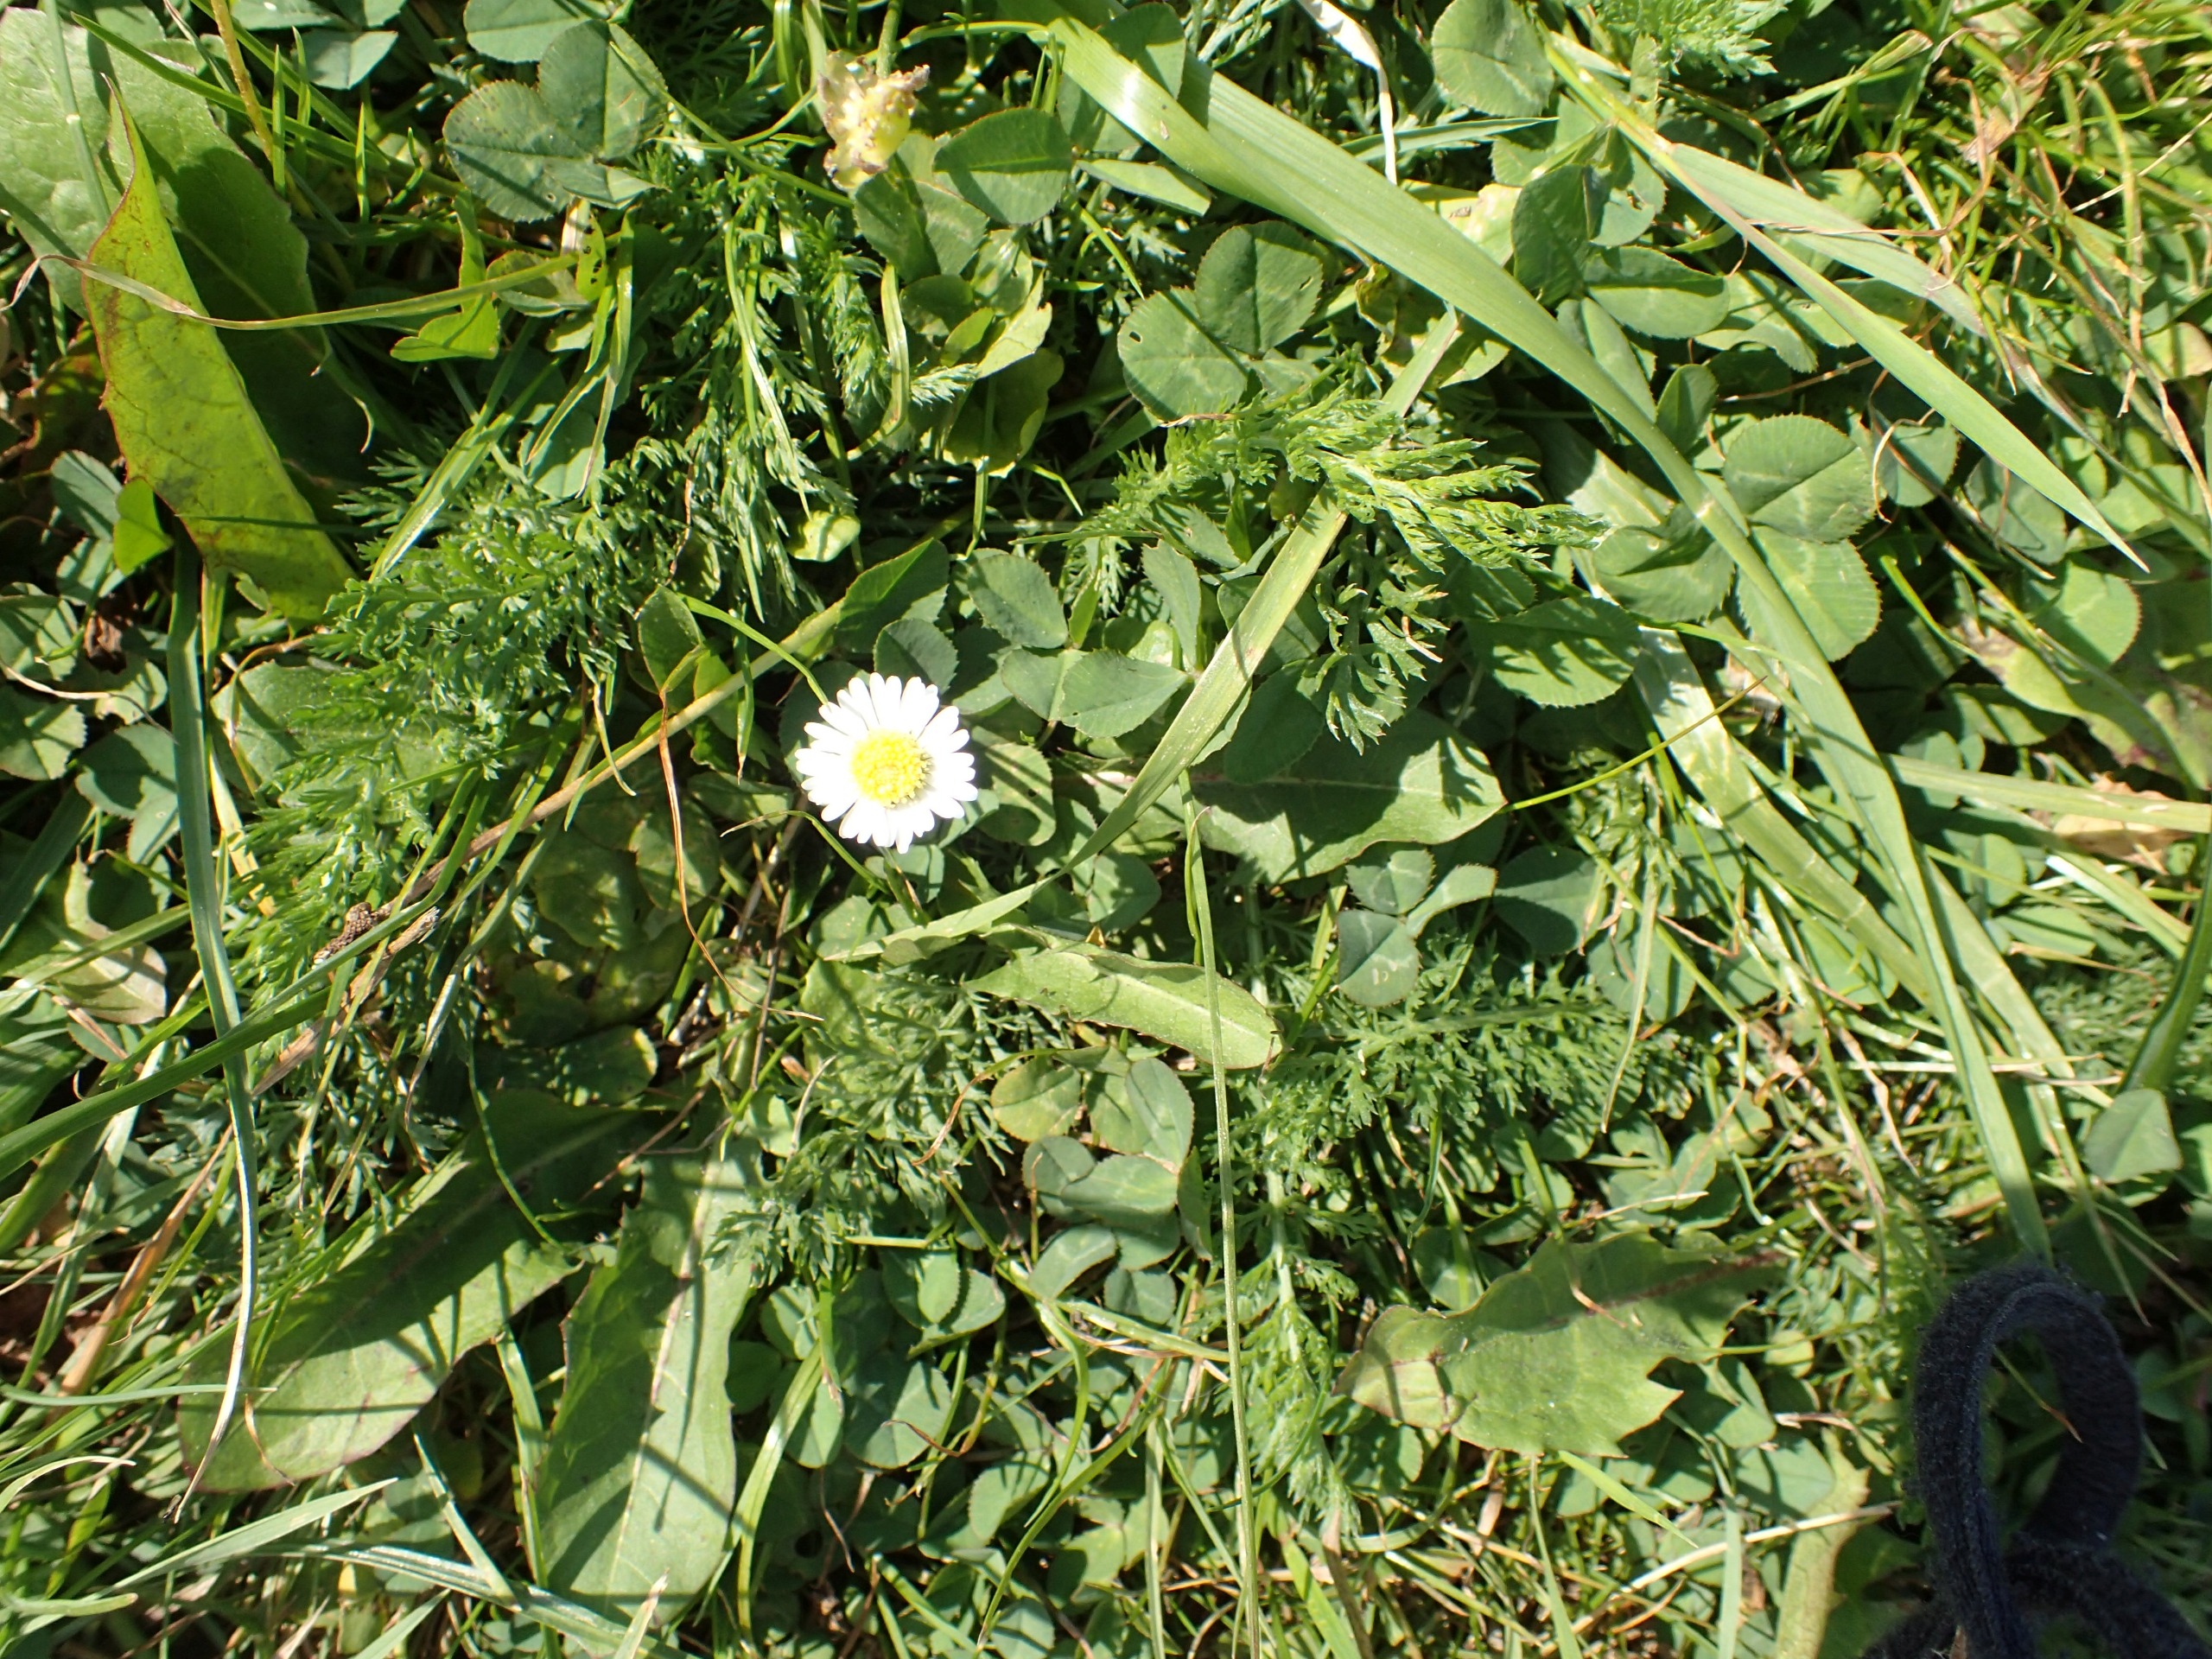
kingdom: Plantae
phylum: Tracheophyta
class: Magnoliopsida
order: Asterales
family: Asteraceae
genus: Bellis
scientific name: Bellis perennis
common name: Tusindfryd
